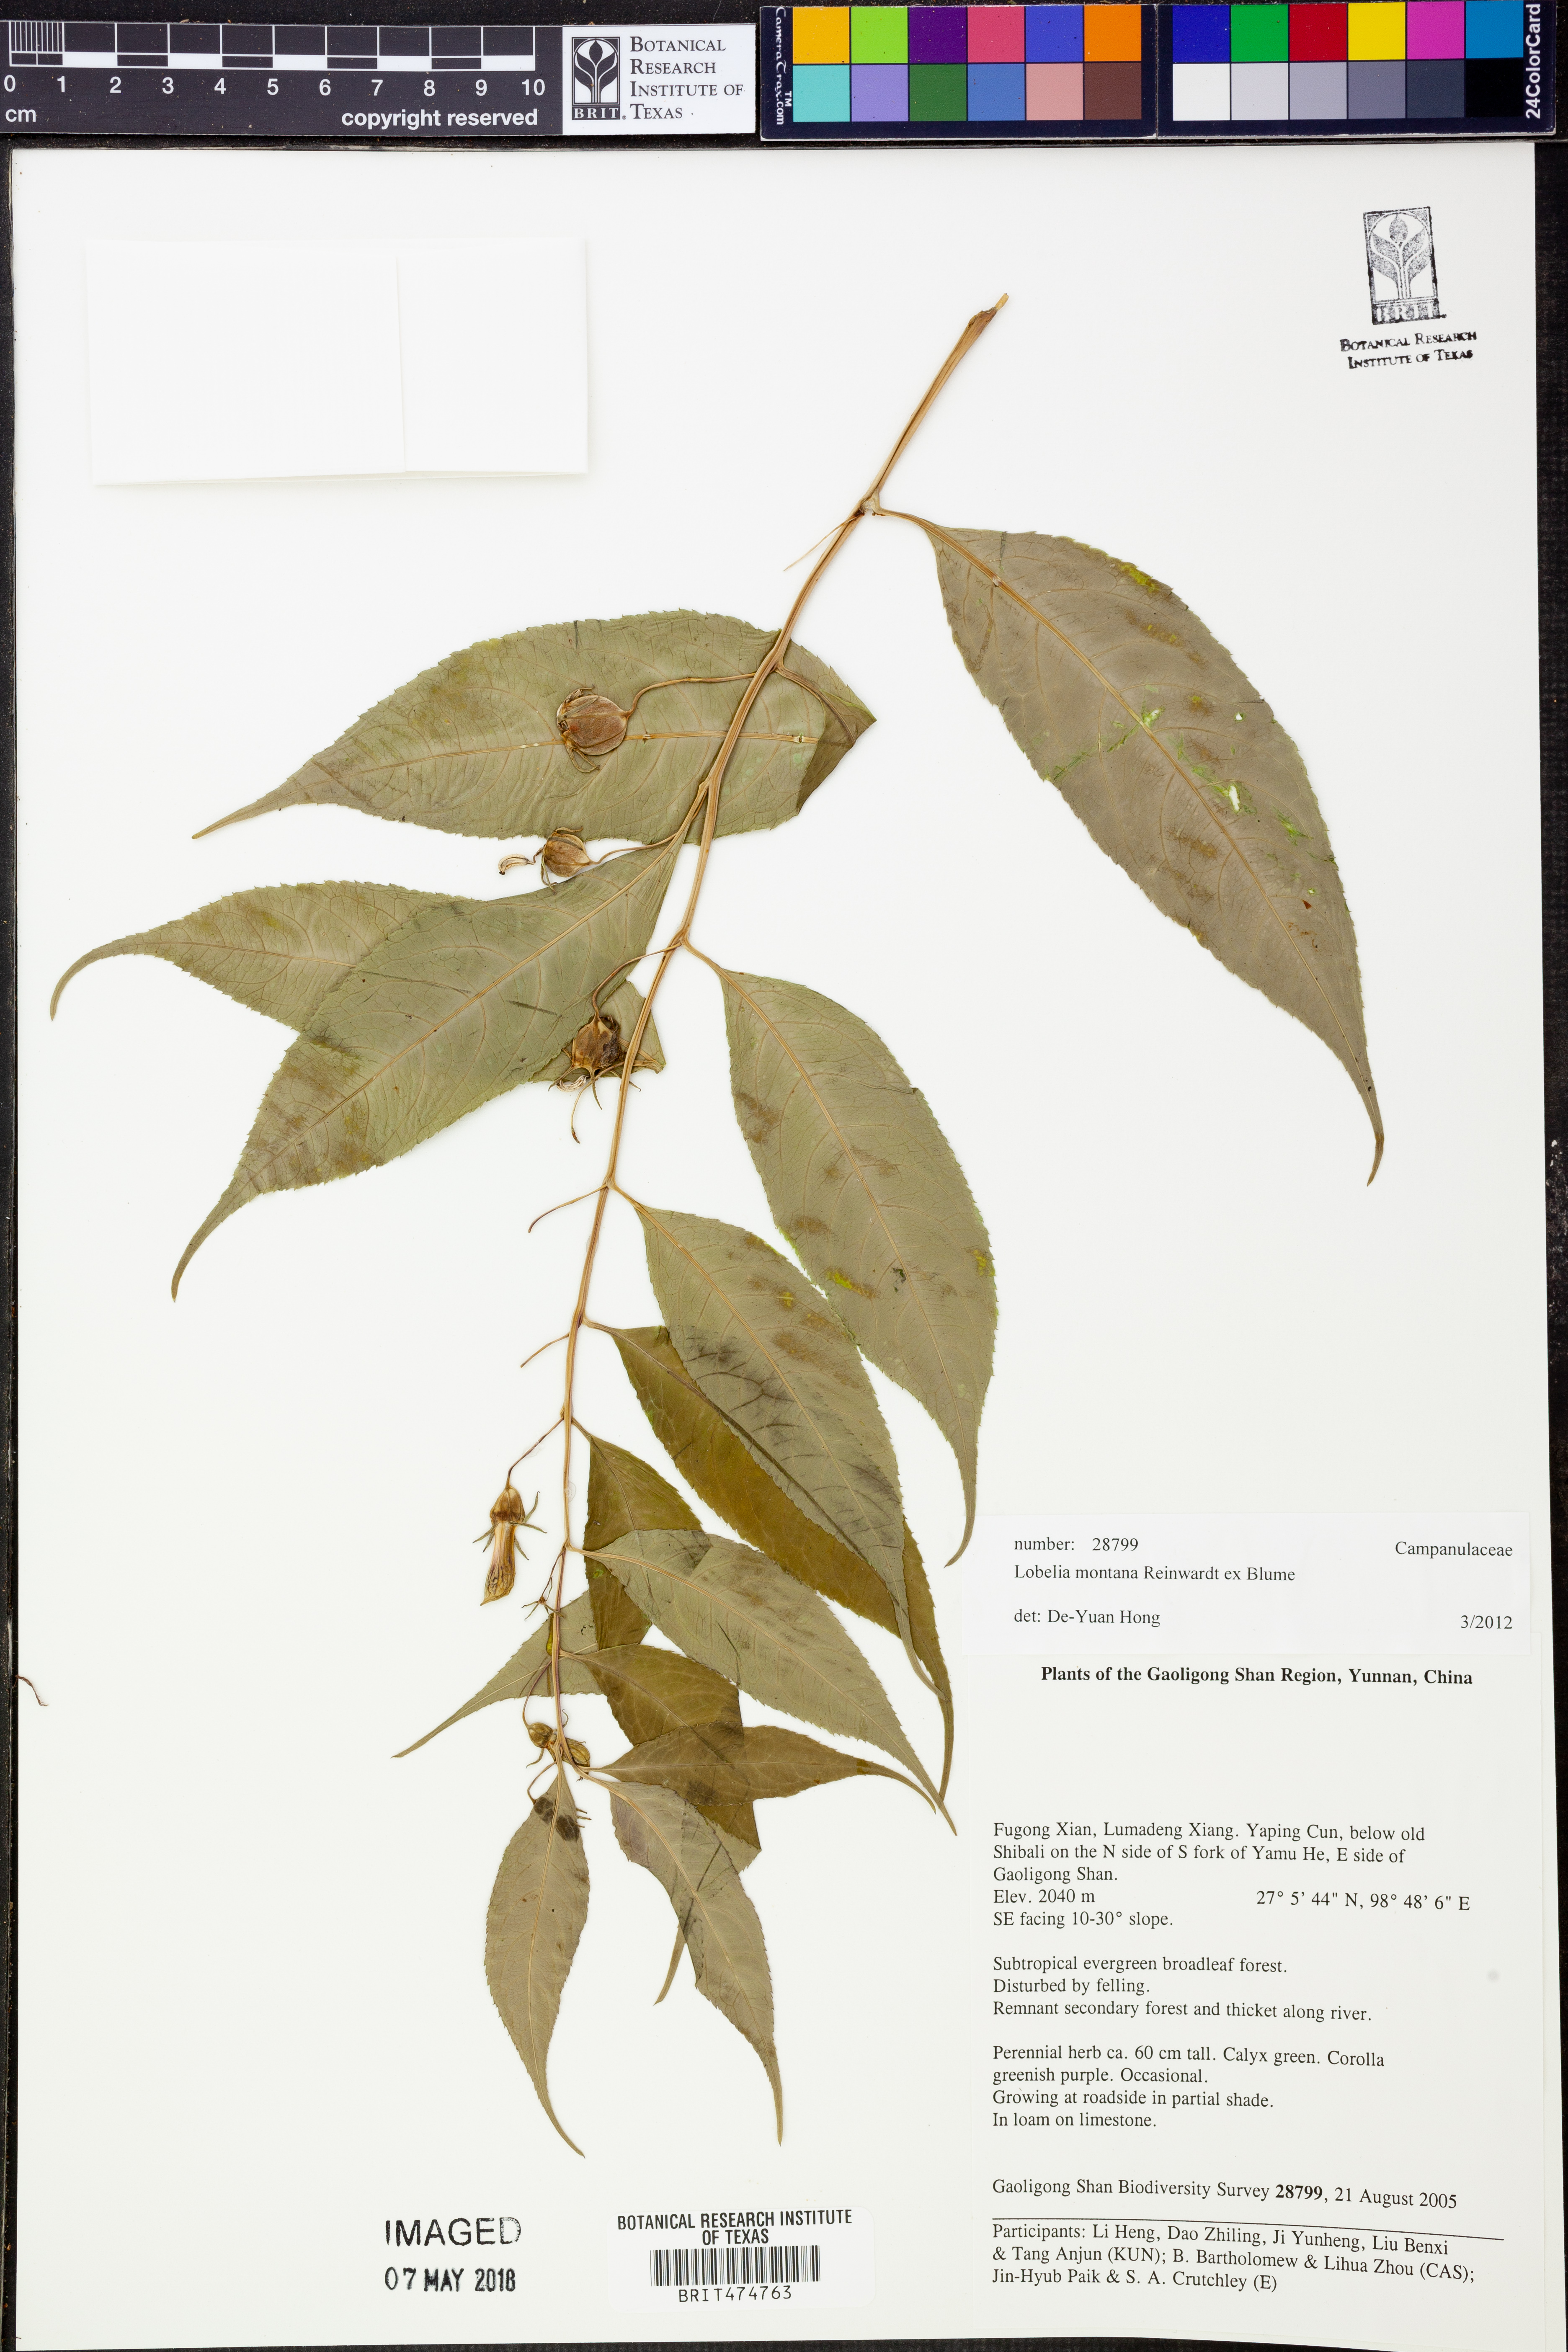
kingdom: Plantae
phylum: Tracheophyta
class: Magnoliopsida
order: Asterales
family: Campanulaceae
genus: Lobelia
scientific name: Lobelia montana
